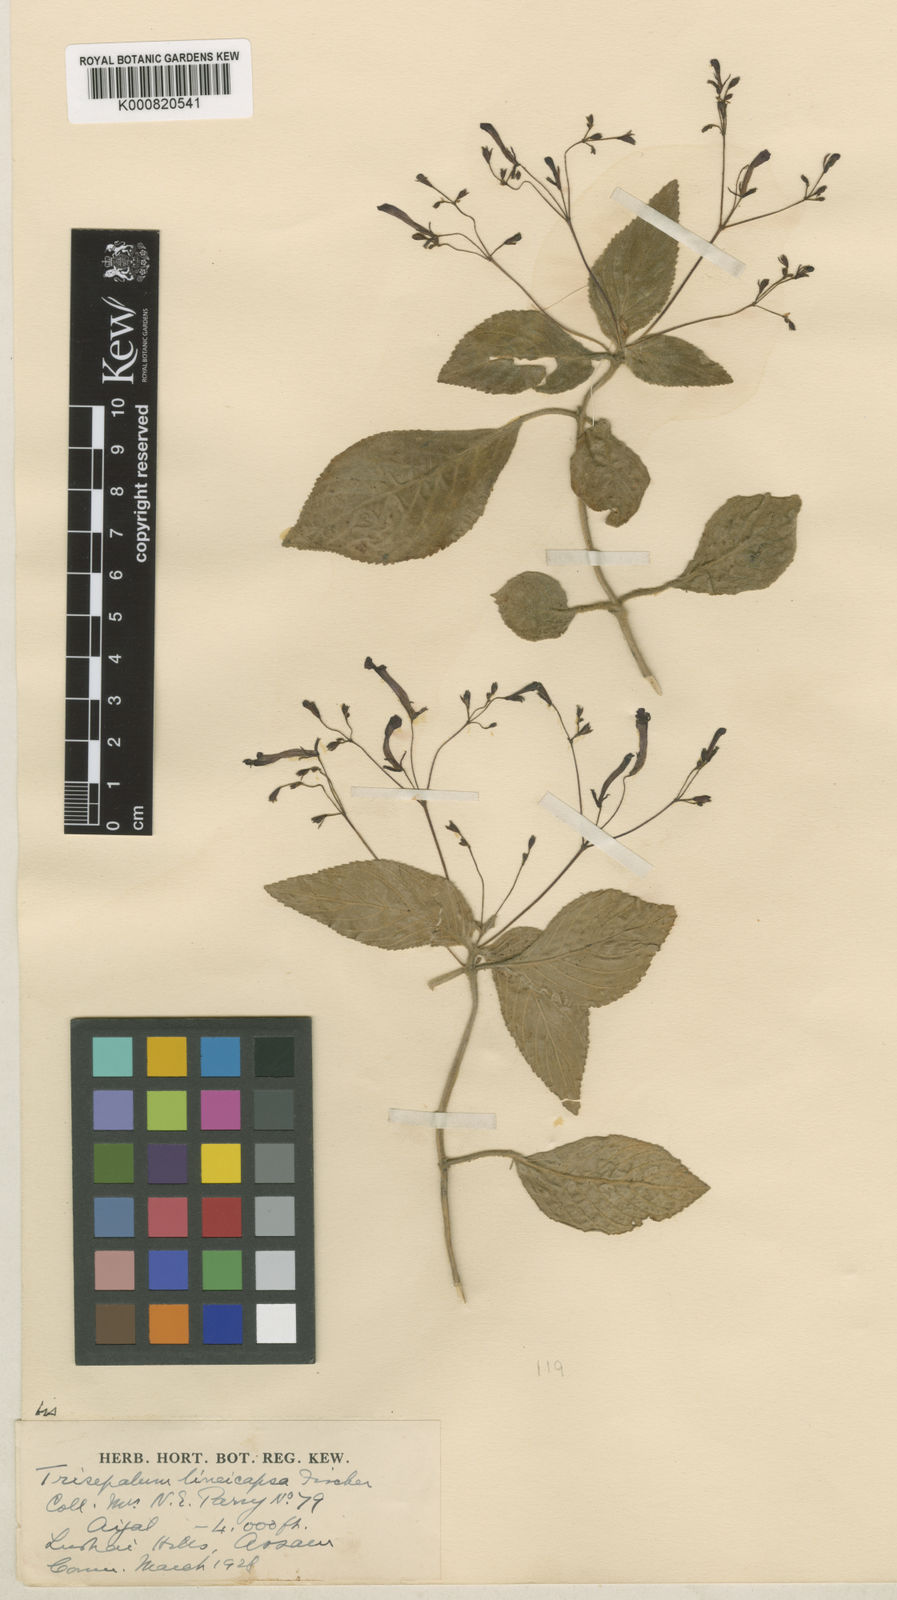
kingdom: Plantae
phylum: Tracheophyta
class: Magnoliopsida
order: Lamiales
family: Gesneriaceae
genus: Didymocarpus
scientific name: Didymocarpus lineicapsa
